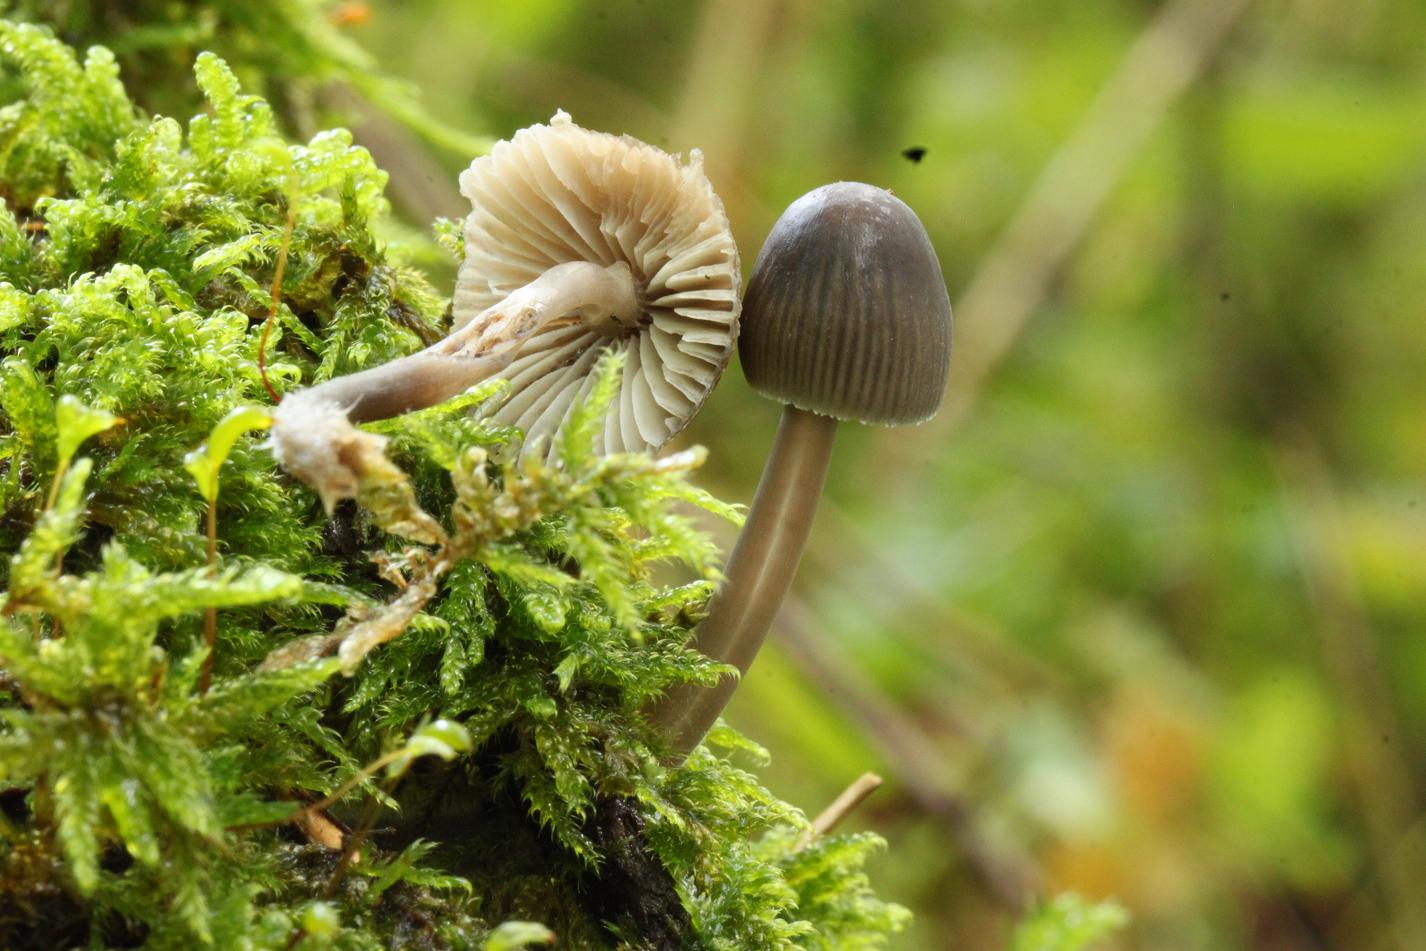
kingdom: Fungi
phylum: Basidiomycota
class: Agaricomycetes
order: Agaricales
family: Mycenaceae
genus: Mycena
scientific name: Mycena abramsii
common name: sommer-huesvamp
